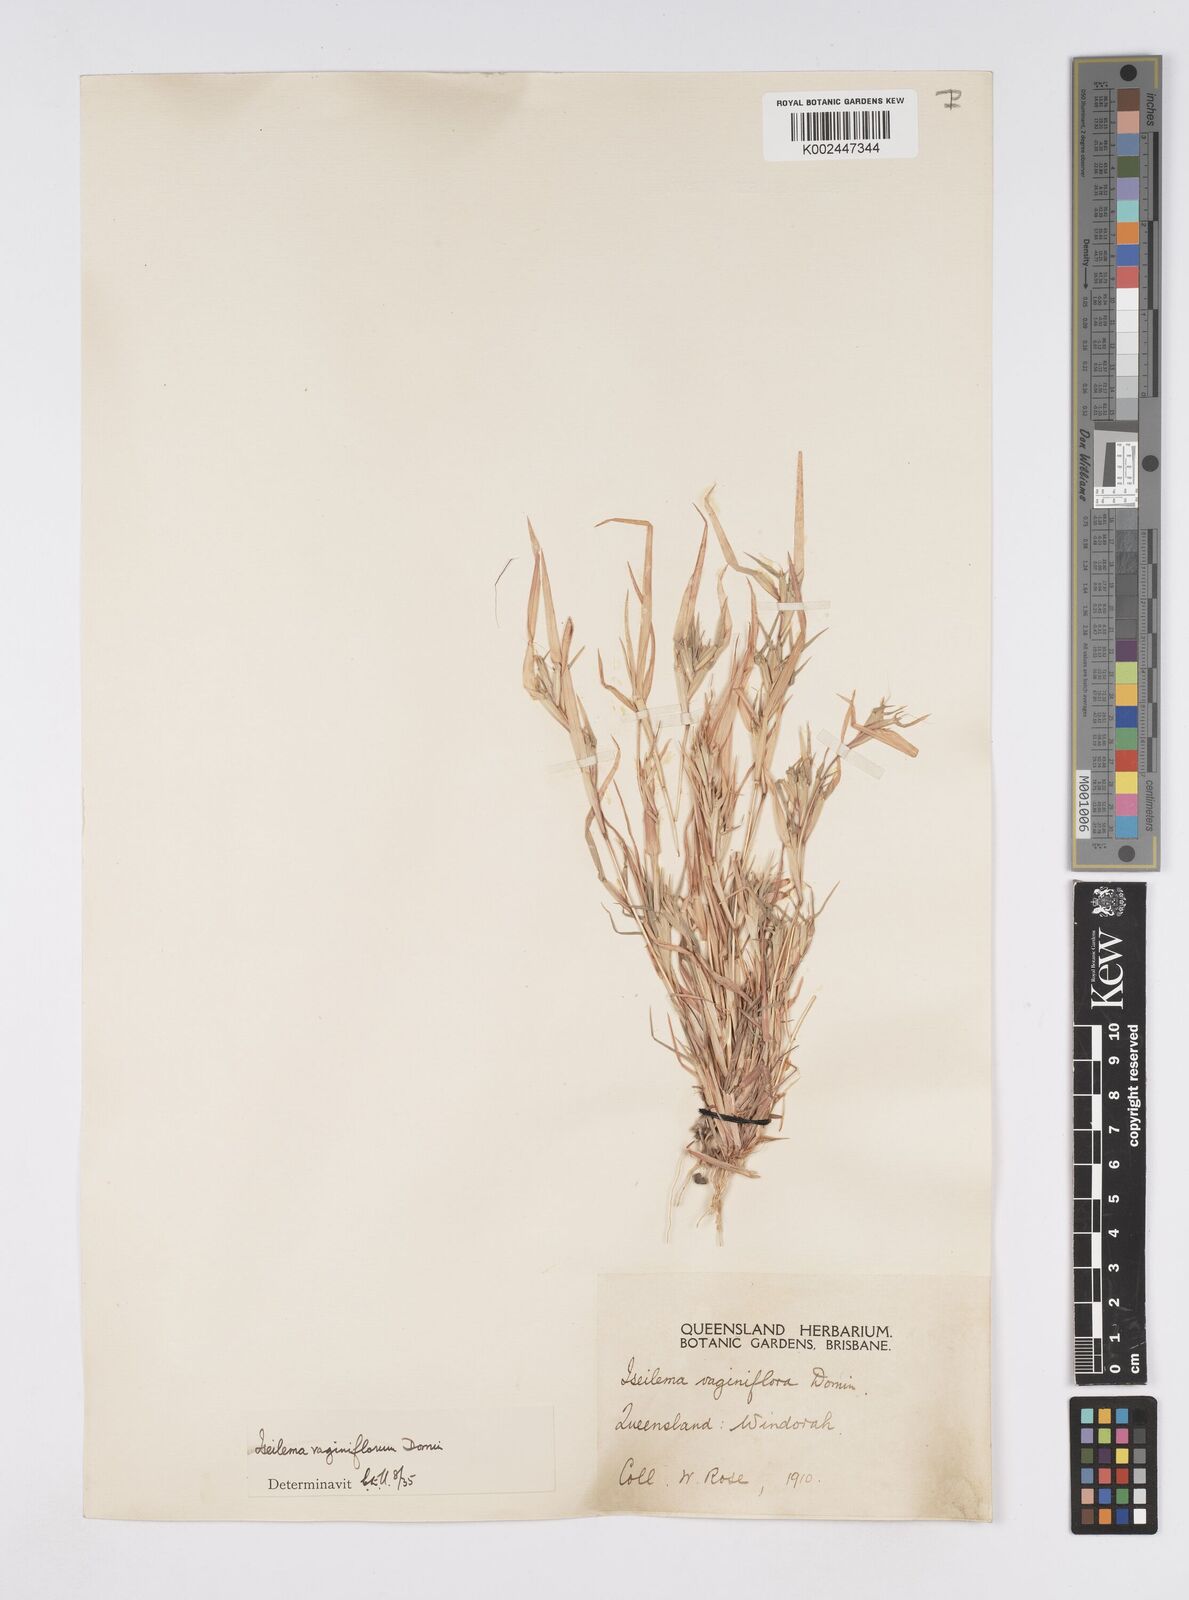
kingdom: Plantae
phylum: Tracheophyta
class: Liliopsida
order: Poales
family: Poaceae
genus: Iseilema
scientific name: Iseilema vaginiflorum
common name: Red flinders grass
